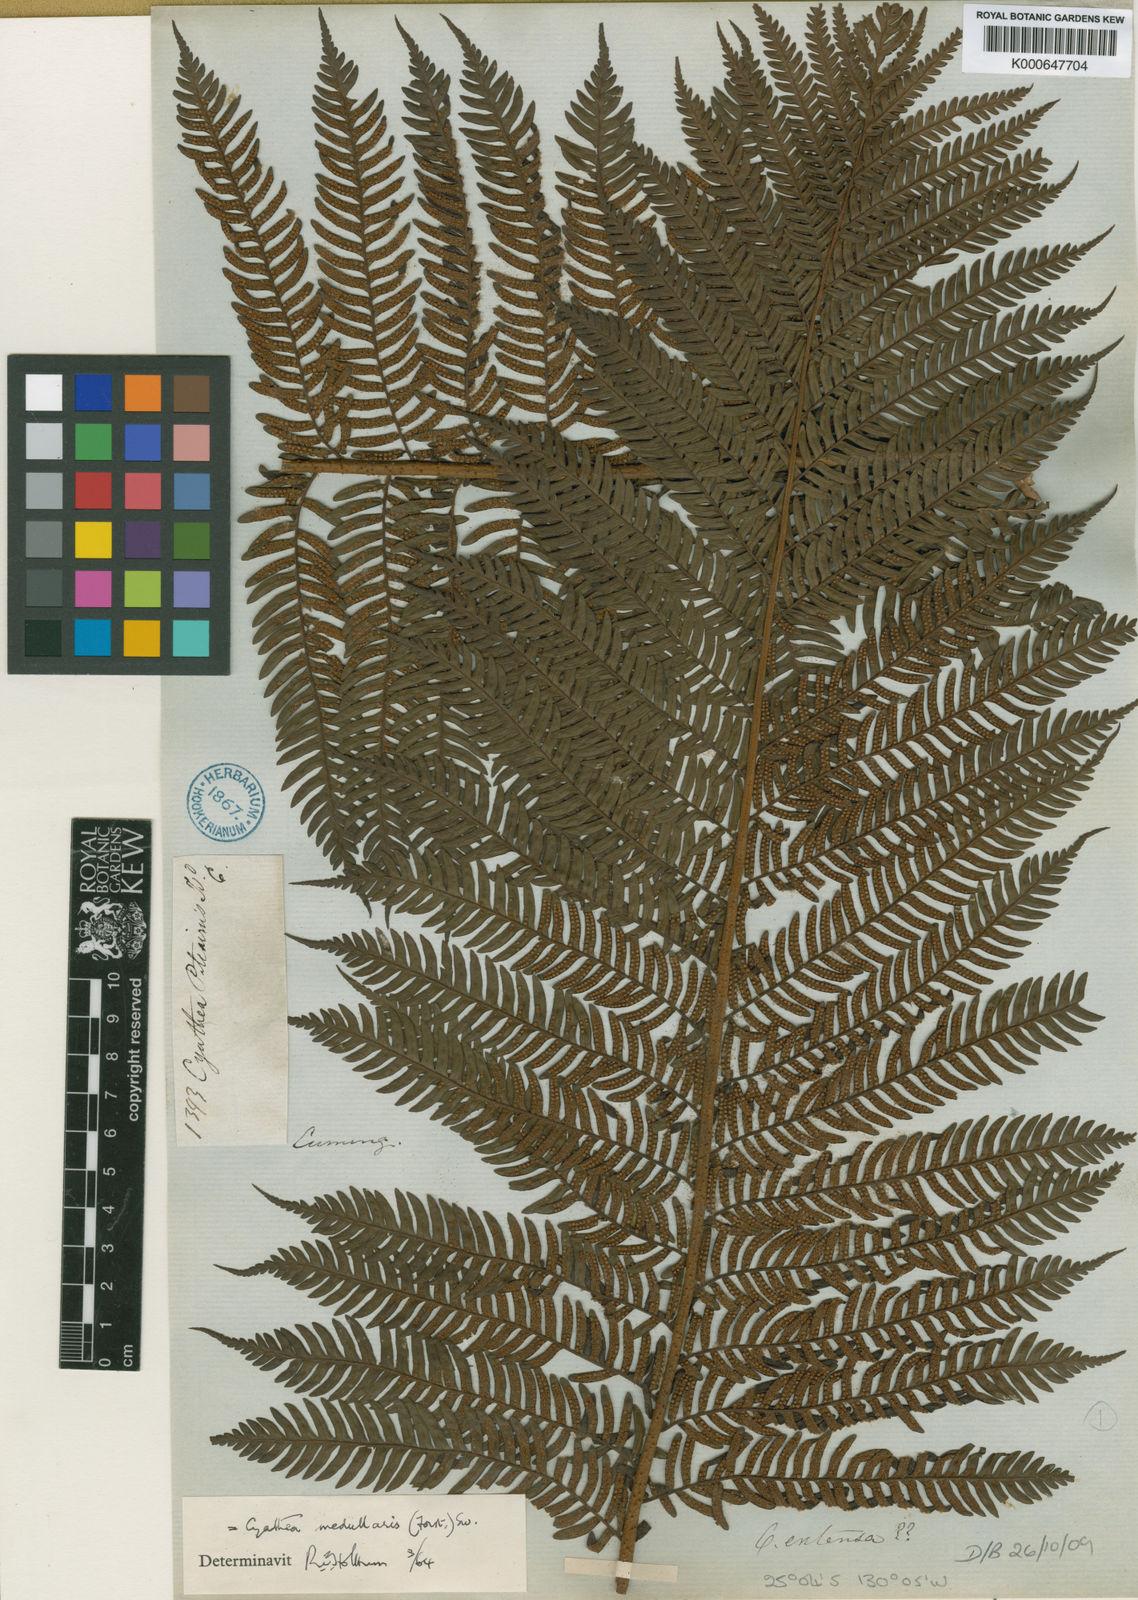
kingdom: Plantae
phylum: Tracheophyta
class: Polypodiopsida
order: Cyatheales
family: Cyatheaceae
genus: Sphaeropteris
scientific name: Sphaeropteris medullaris
